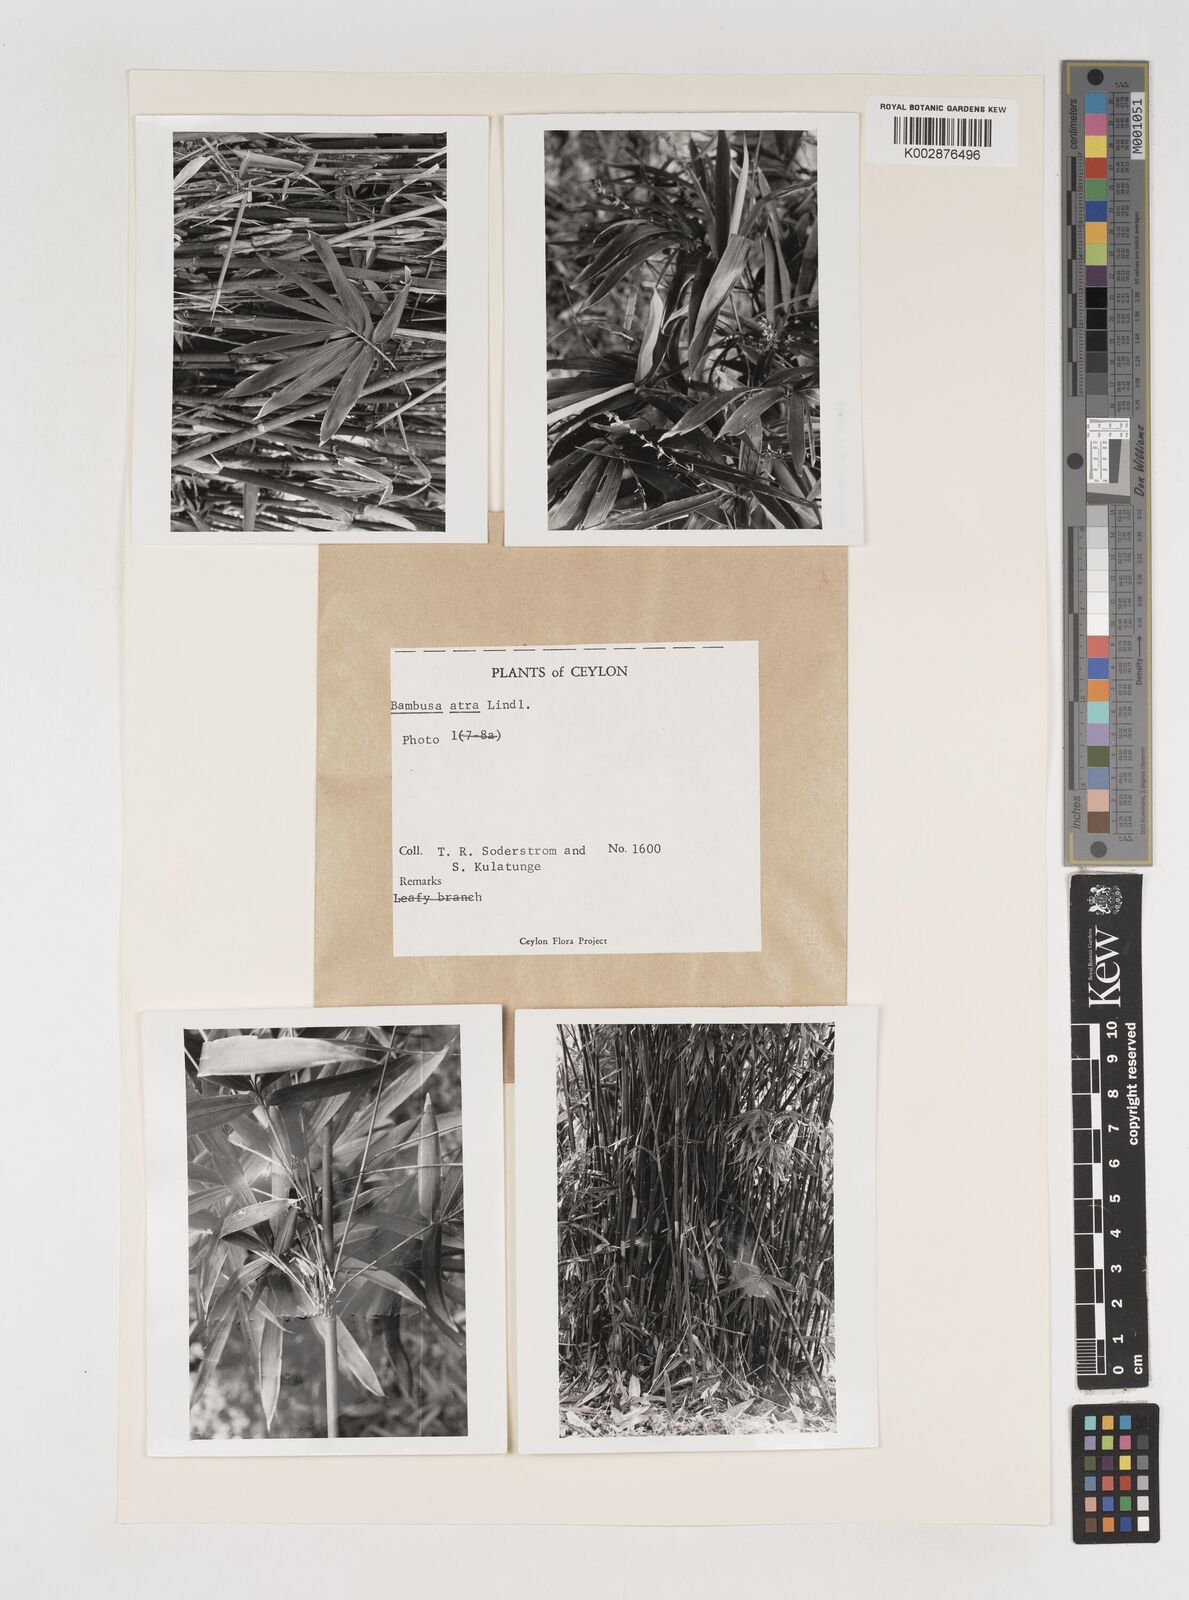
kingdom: Plantae
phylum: Tracheophyta
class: Liliopsida
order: Poales
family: Poaceae
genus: Bambusa
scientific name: Bambusa
